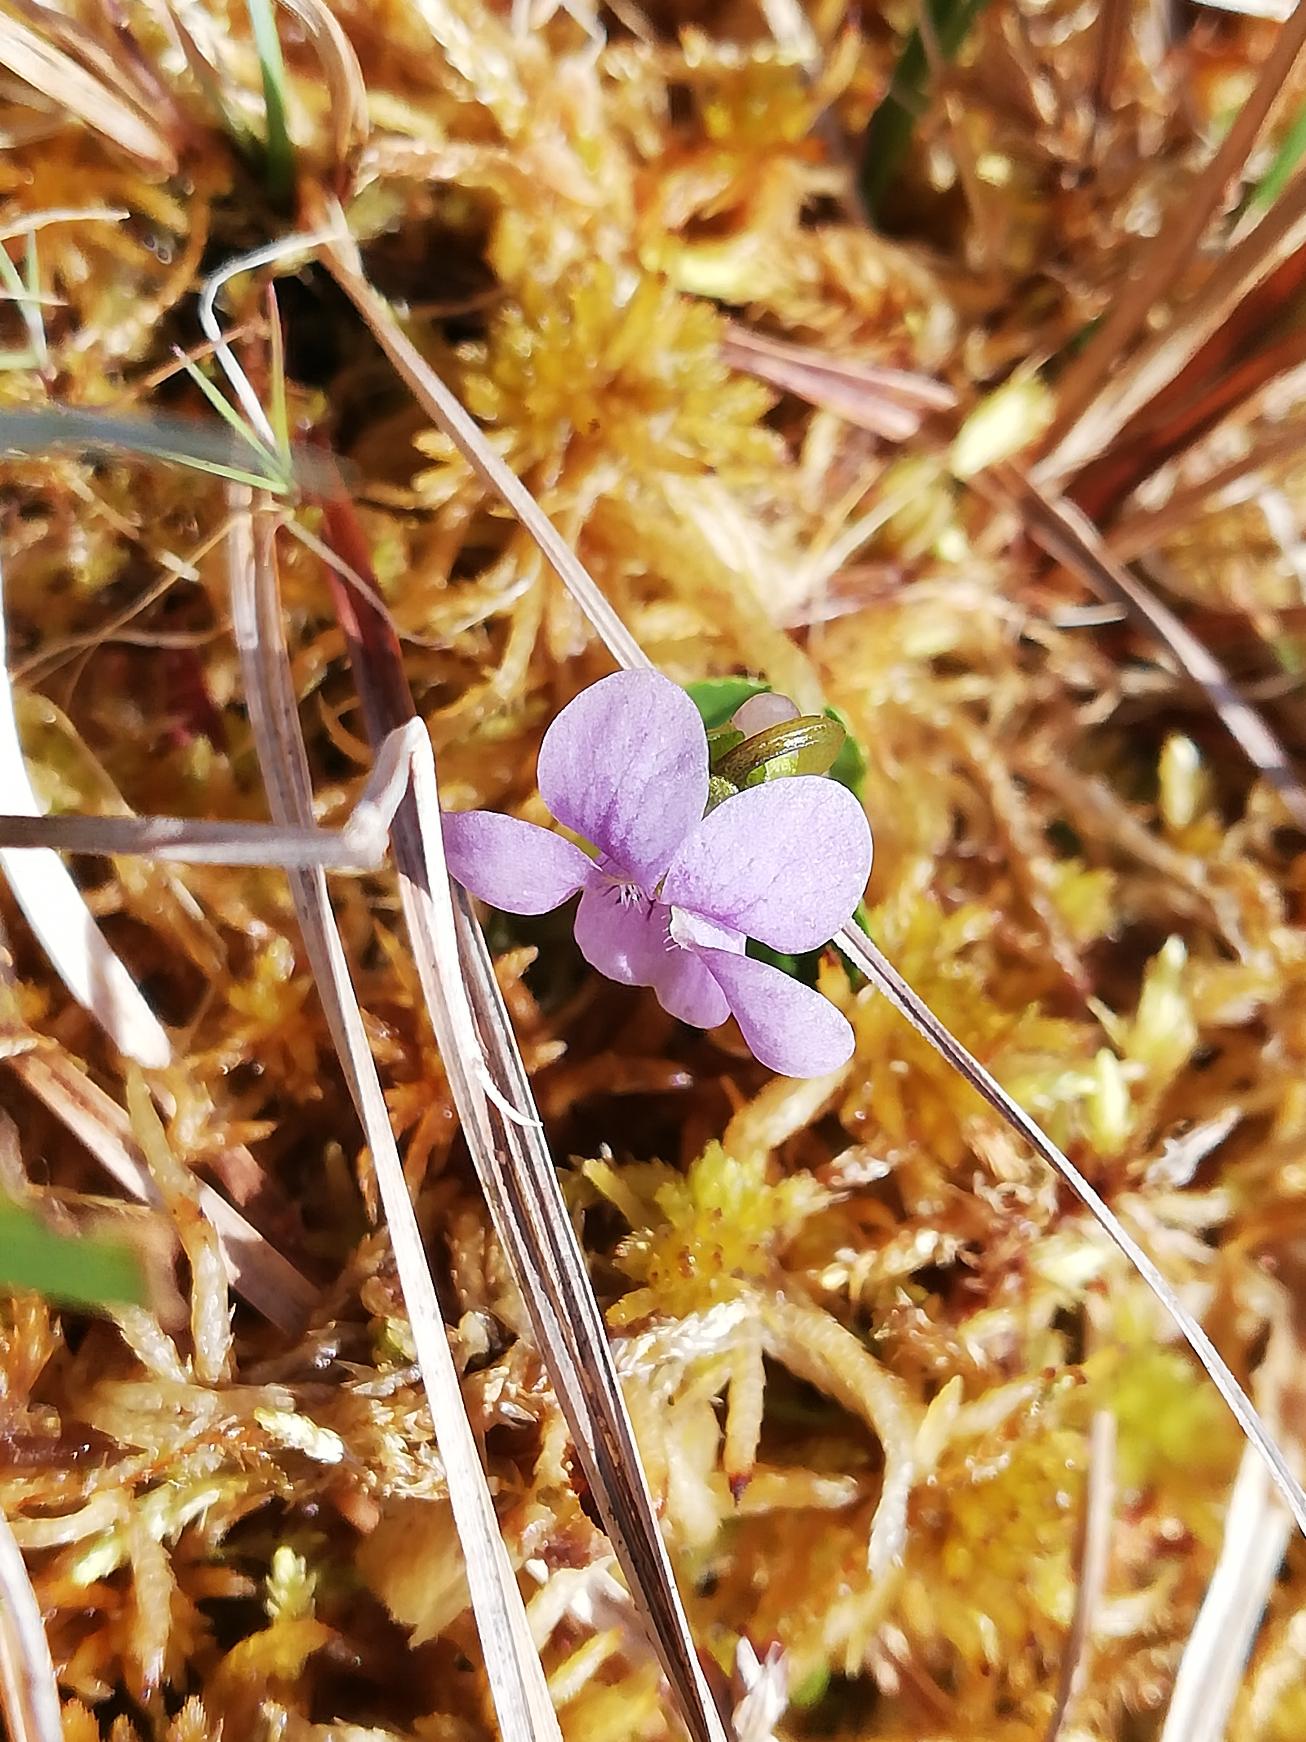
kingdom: Plantae
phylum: Tracheophyta
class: Magnoliopsida
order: Malpighiales
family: Violaceae
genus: Viola
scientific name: Viola palustris
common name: Eng-viol
